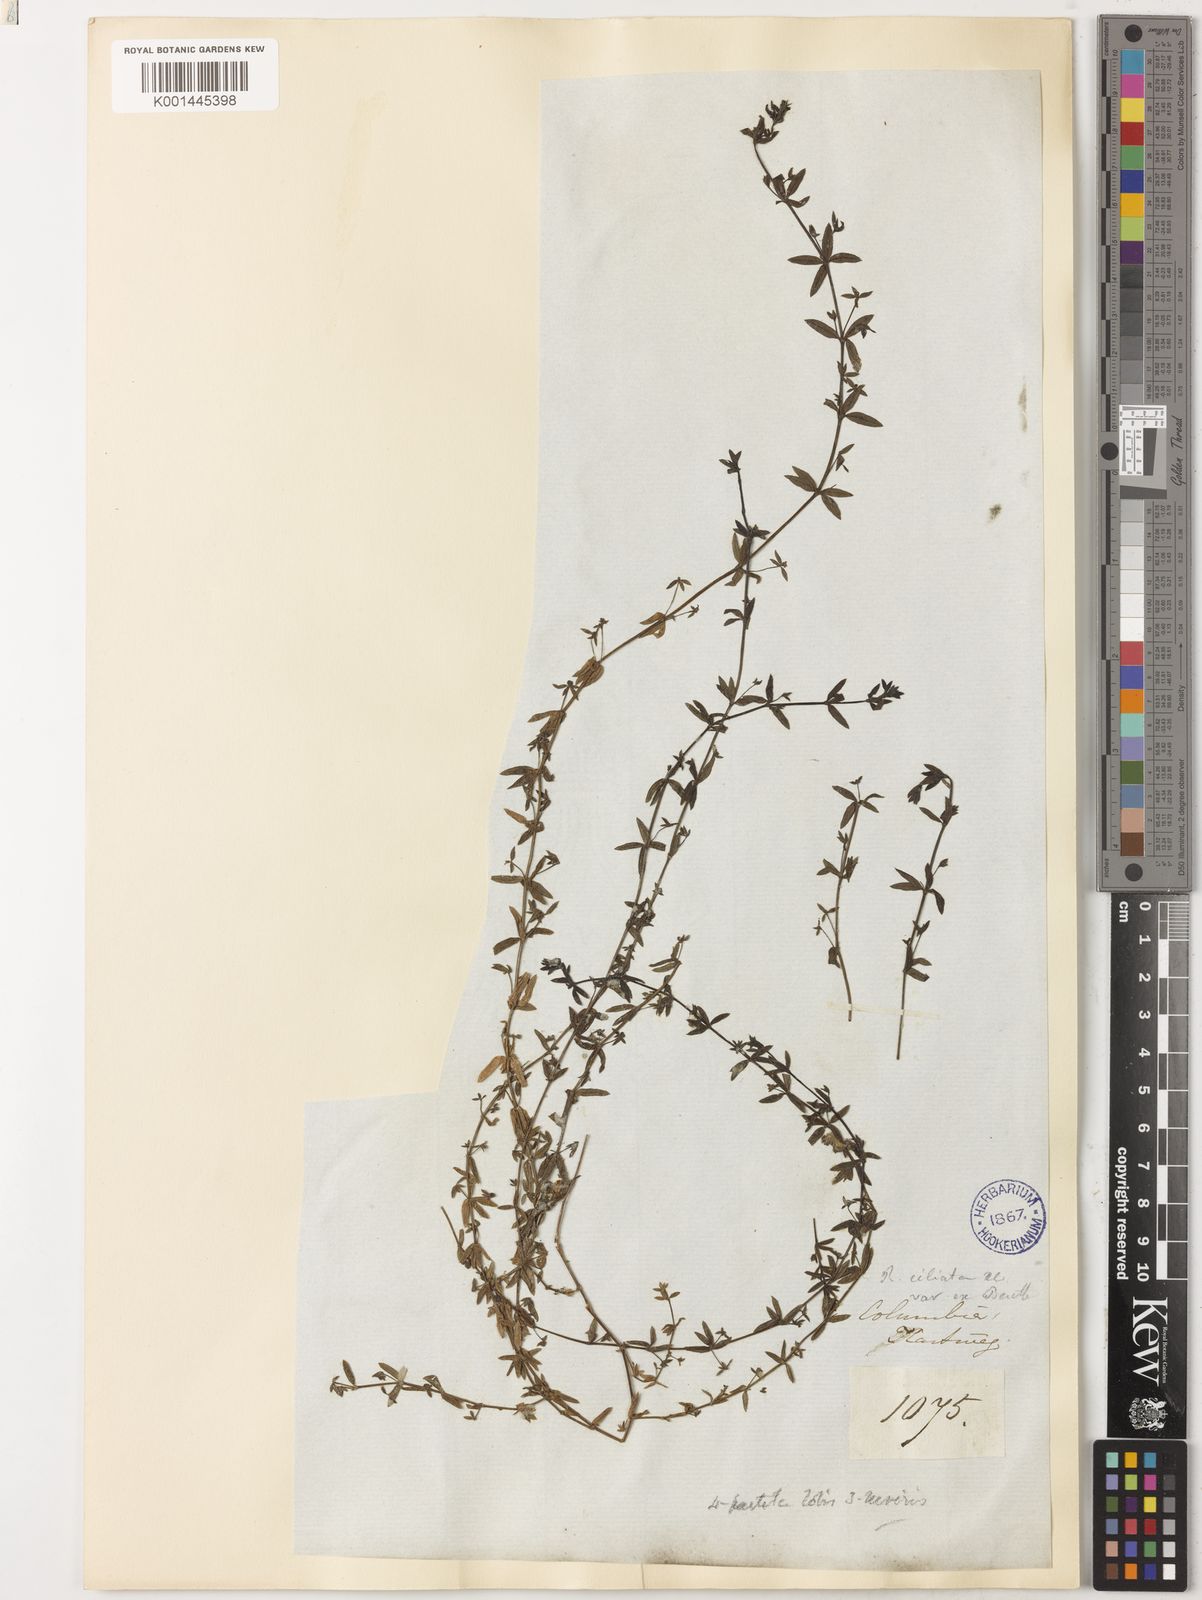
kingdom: Plantae
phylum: Tracheophyta
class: Magnoliopsida
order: Gentianales
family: Rubiaceae
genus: Galium
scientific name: Galium corymbosum
